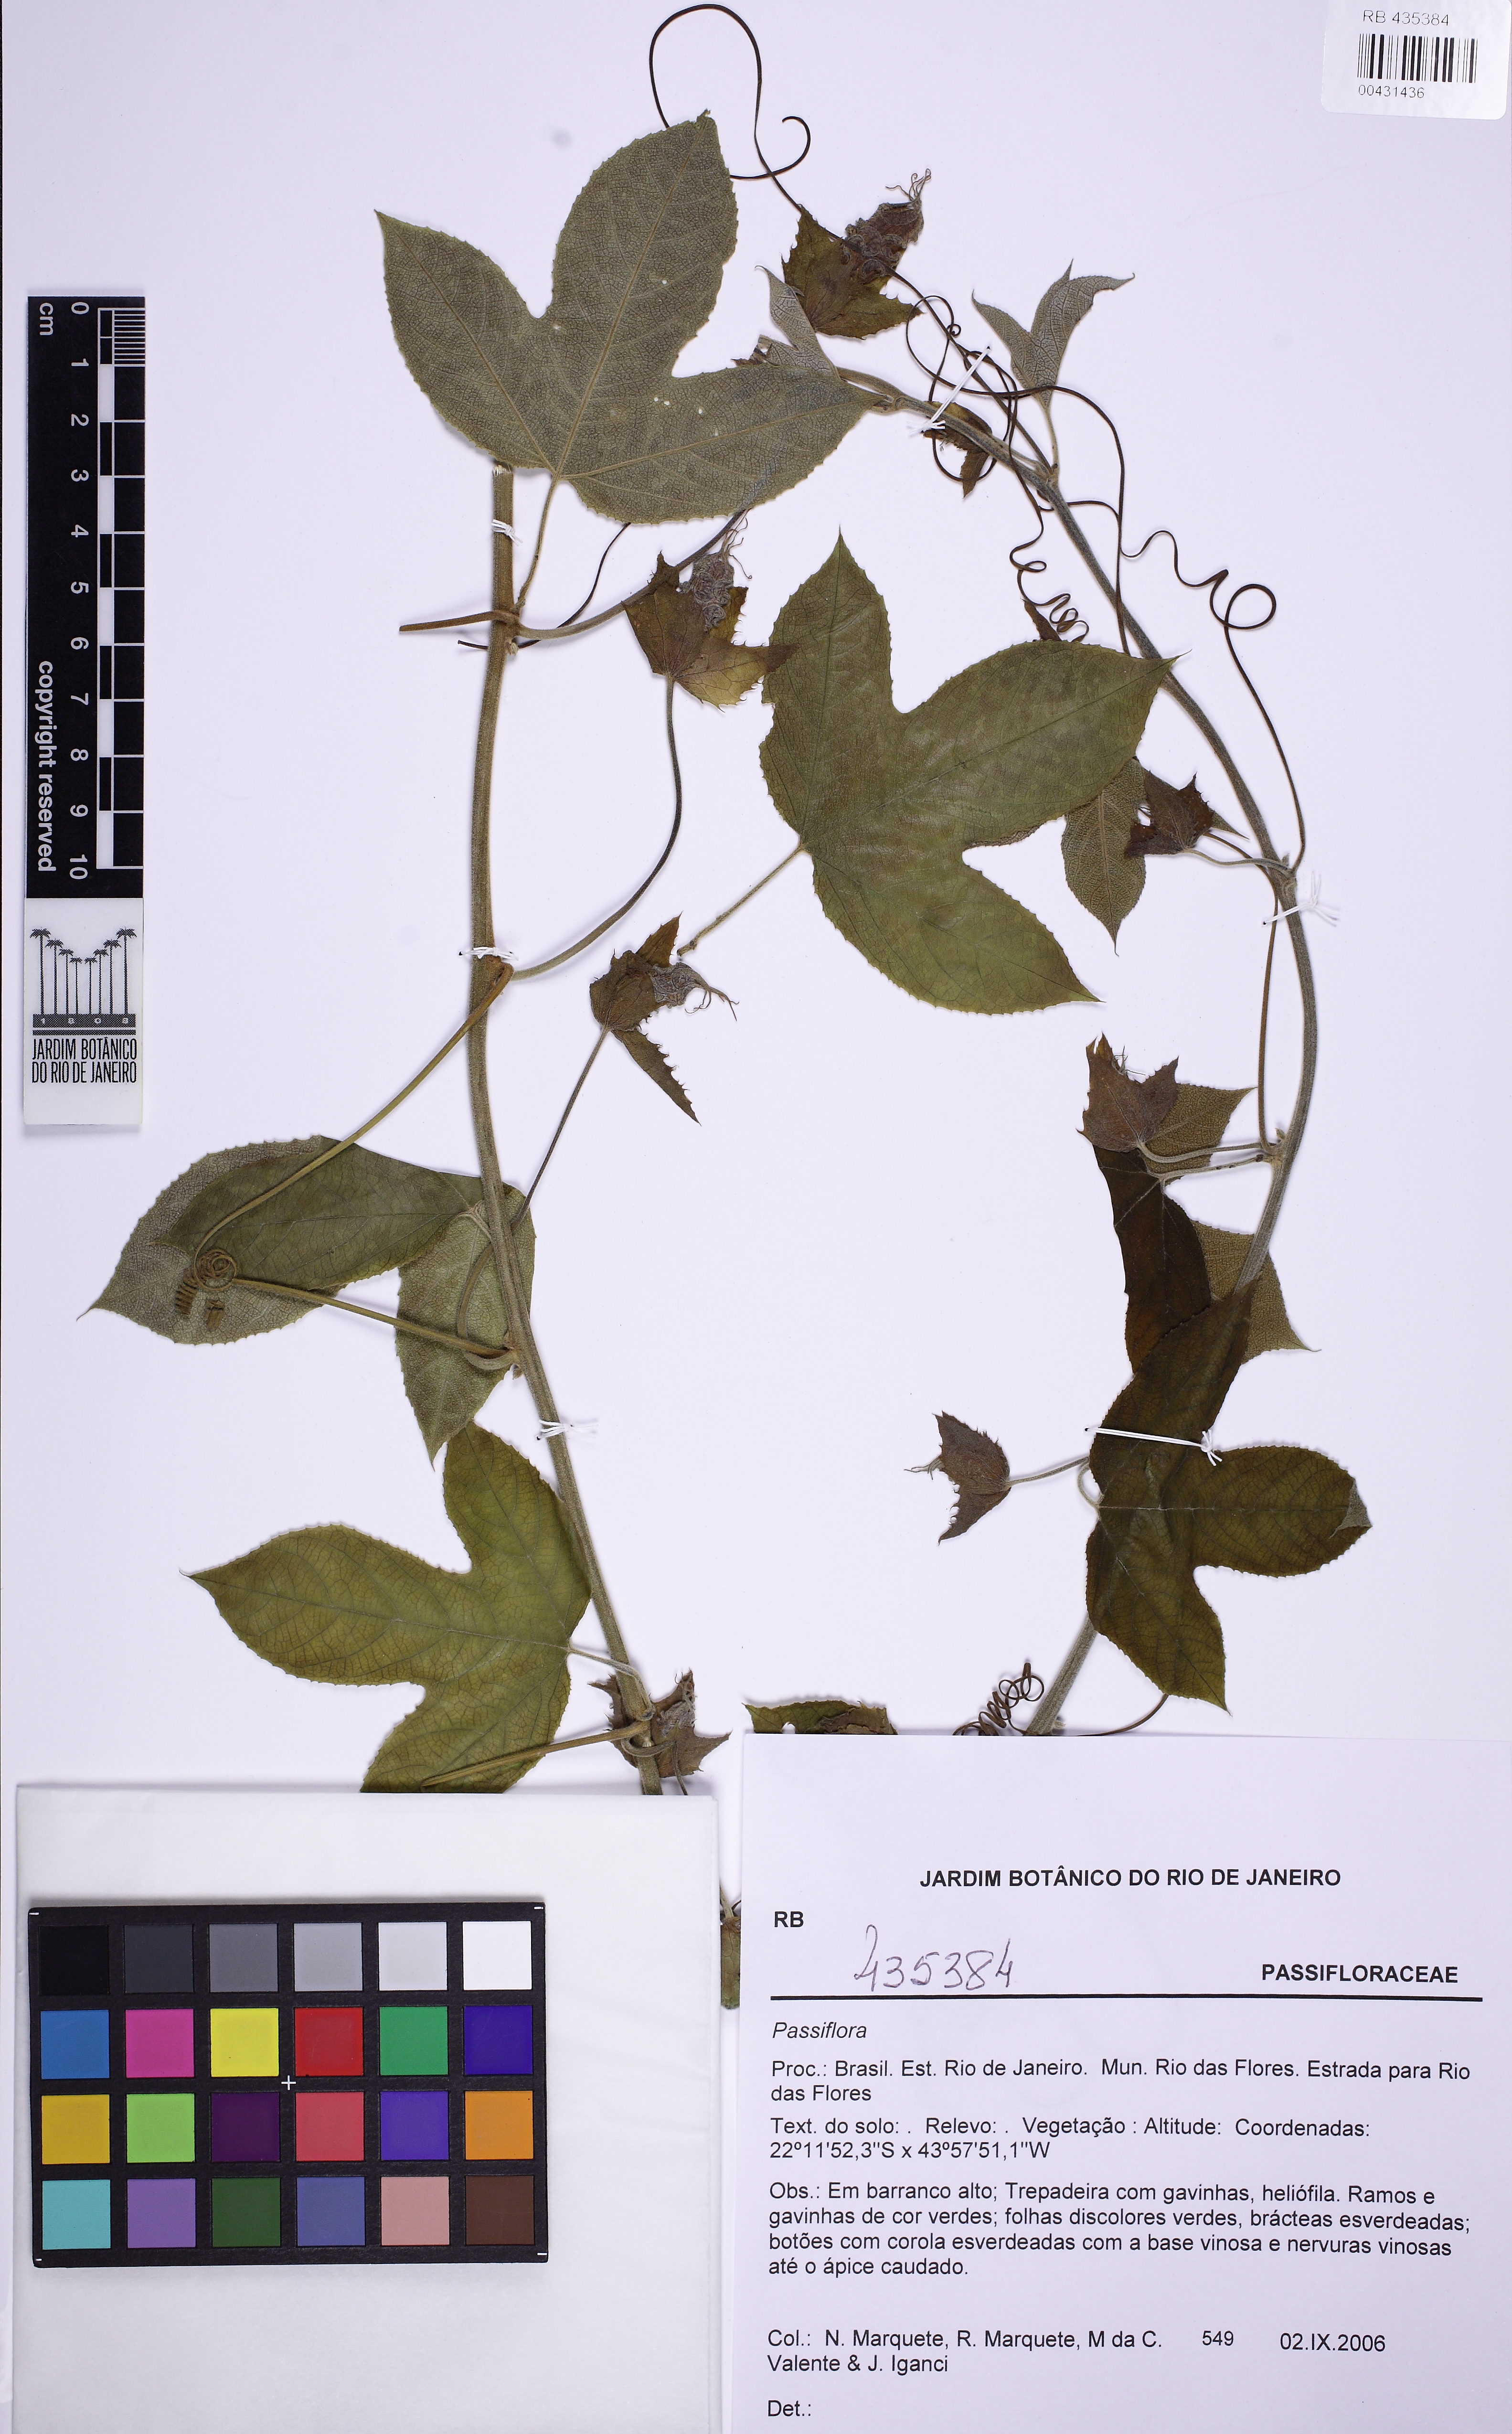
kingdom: Plantae
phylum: Tracheophyta
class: Magnoliopsida
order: Malpighiales
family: Passifloraceae
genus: Passiflora
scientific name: Passiflora setacea
